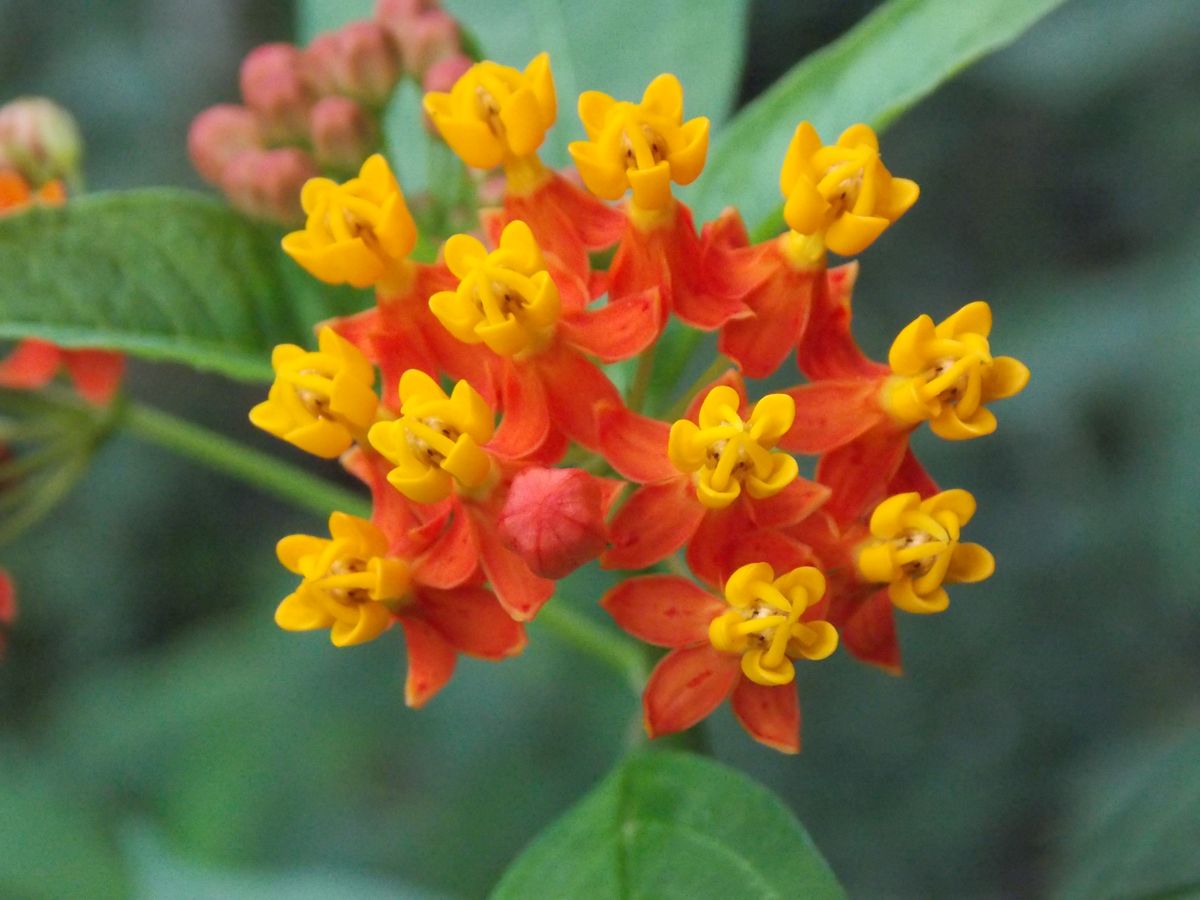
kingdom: Plantae
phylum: Tracheophyta
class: Magnoliopsida
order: Gentianales
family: Apocynaceae
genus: Asclepias
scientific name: Asclepias curassavica
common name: Bloodflower
